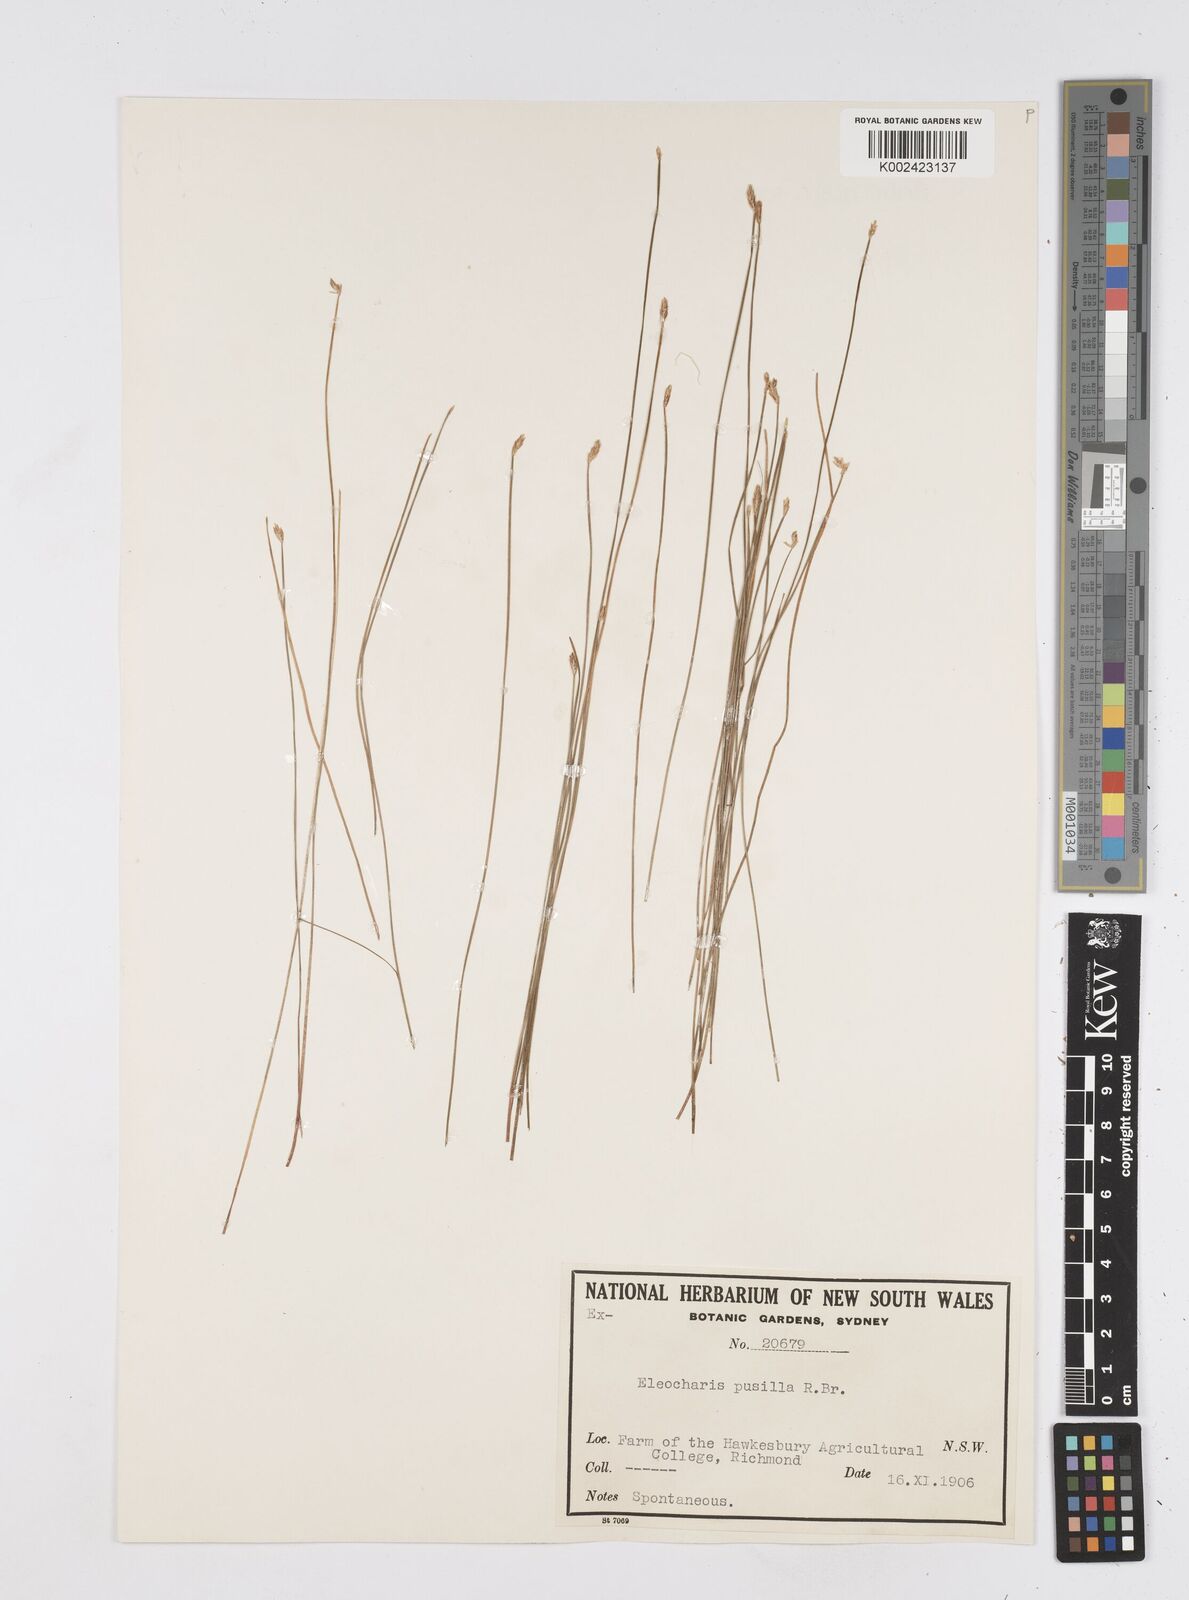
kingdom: Plantae
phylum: Tracheophyta
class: Liliopsida
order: Poales
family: Cyperaceae
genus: Eleocharis
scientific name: Eleocharis pusilla
